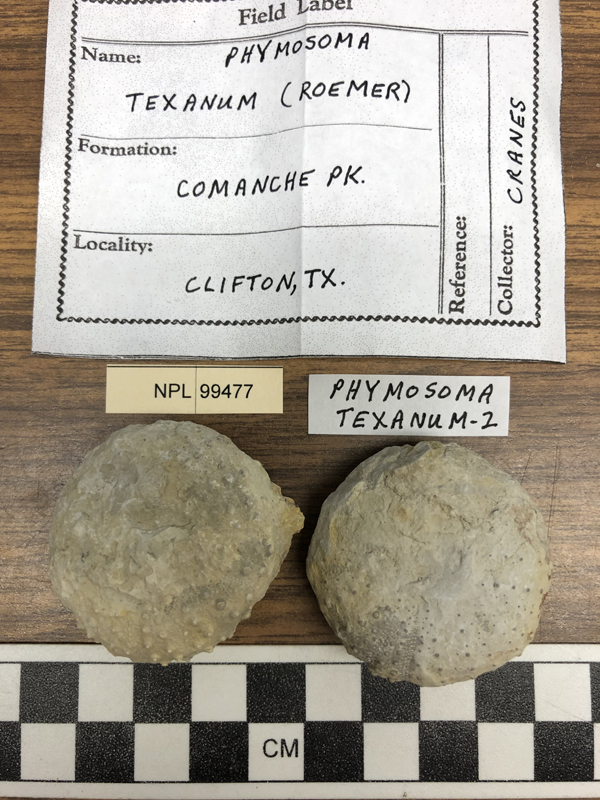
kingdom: Animalia
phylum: Echinodermata
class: Echinoidea
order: Phymosomatoida
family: Phymosomatidae
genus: Phymosoma
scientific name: Phymosoma
